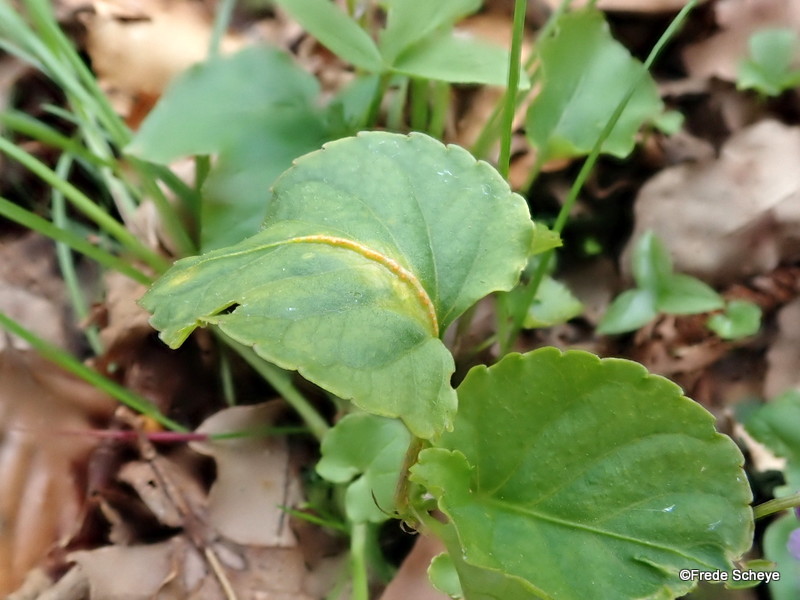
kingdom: Fungi
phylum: Basidiomycota
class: Pucciniomycetes
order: Pucciniales
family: Pucciniaceae
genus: Puccinia
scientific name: Puccinia violae
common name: viol-tvecellerust
